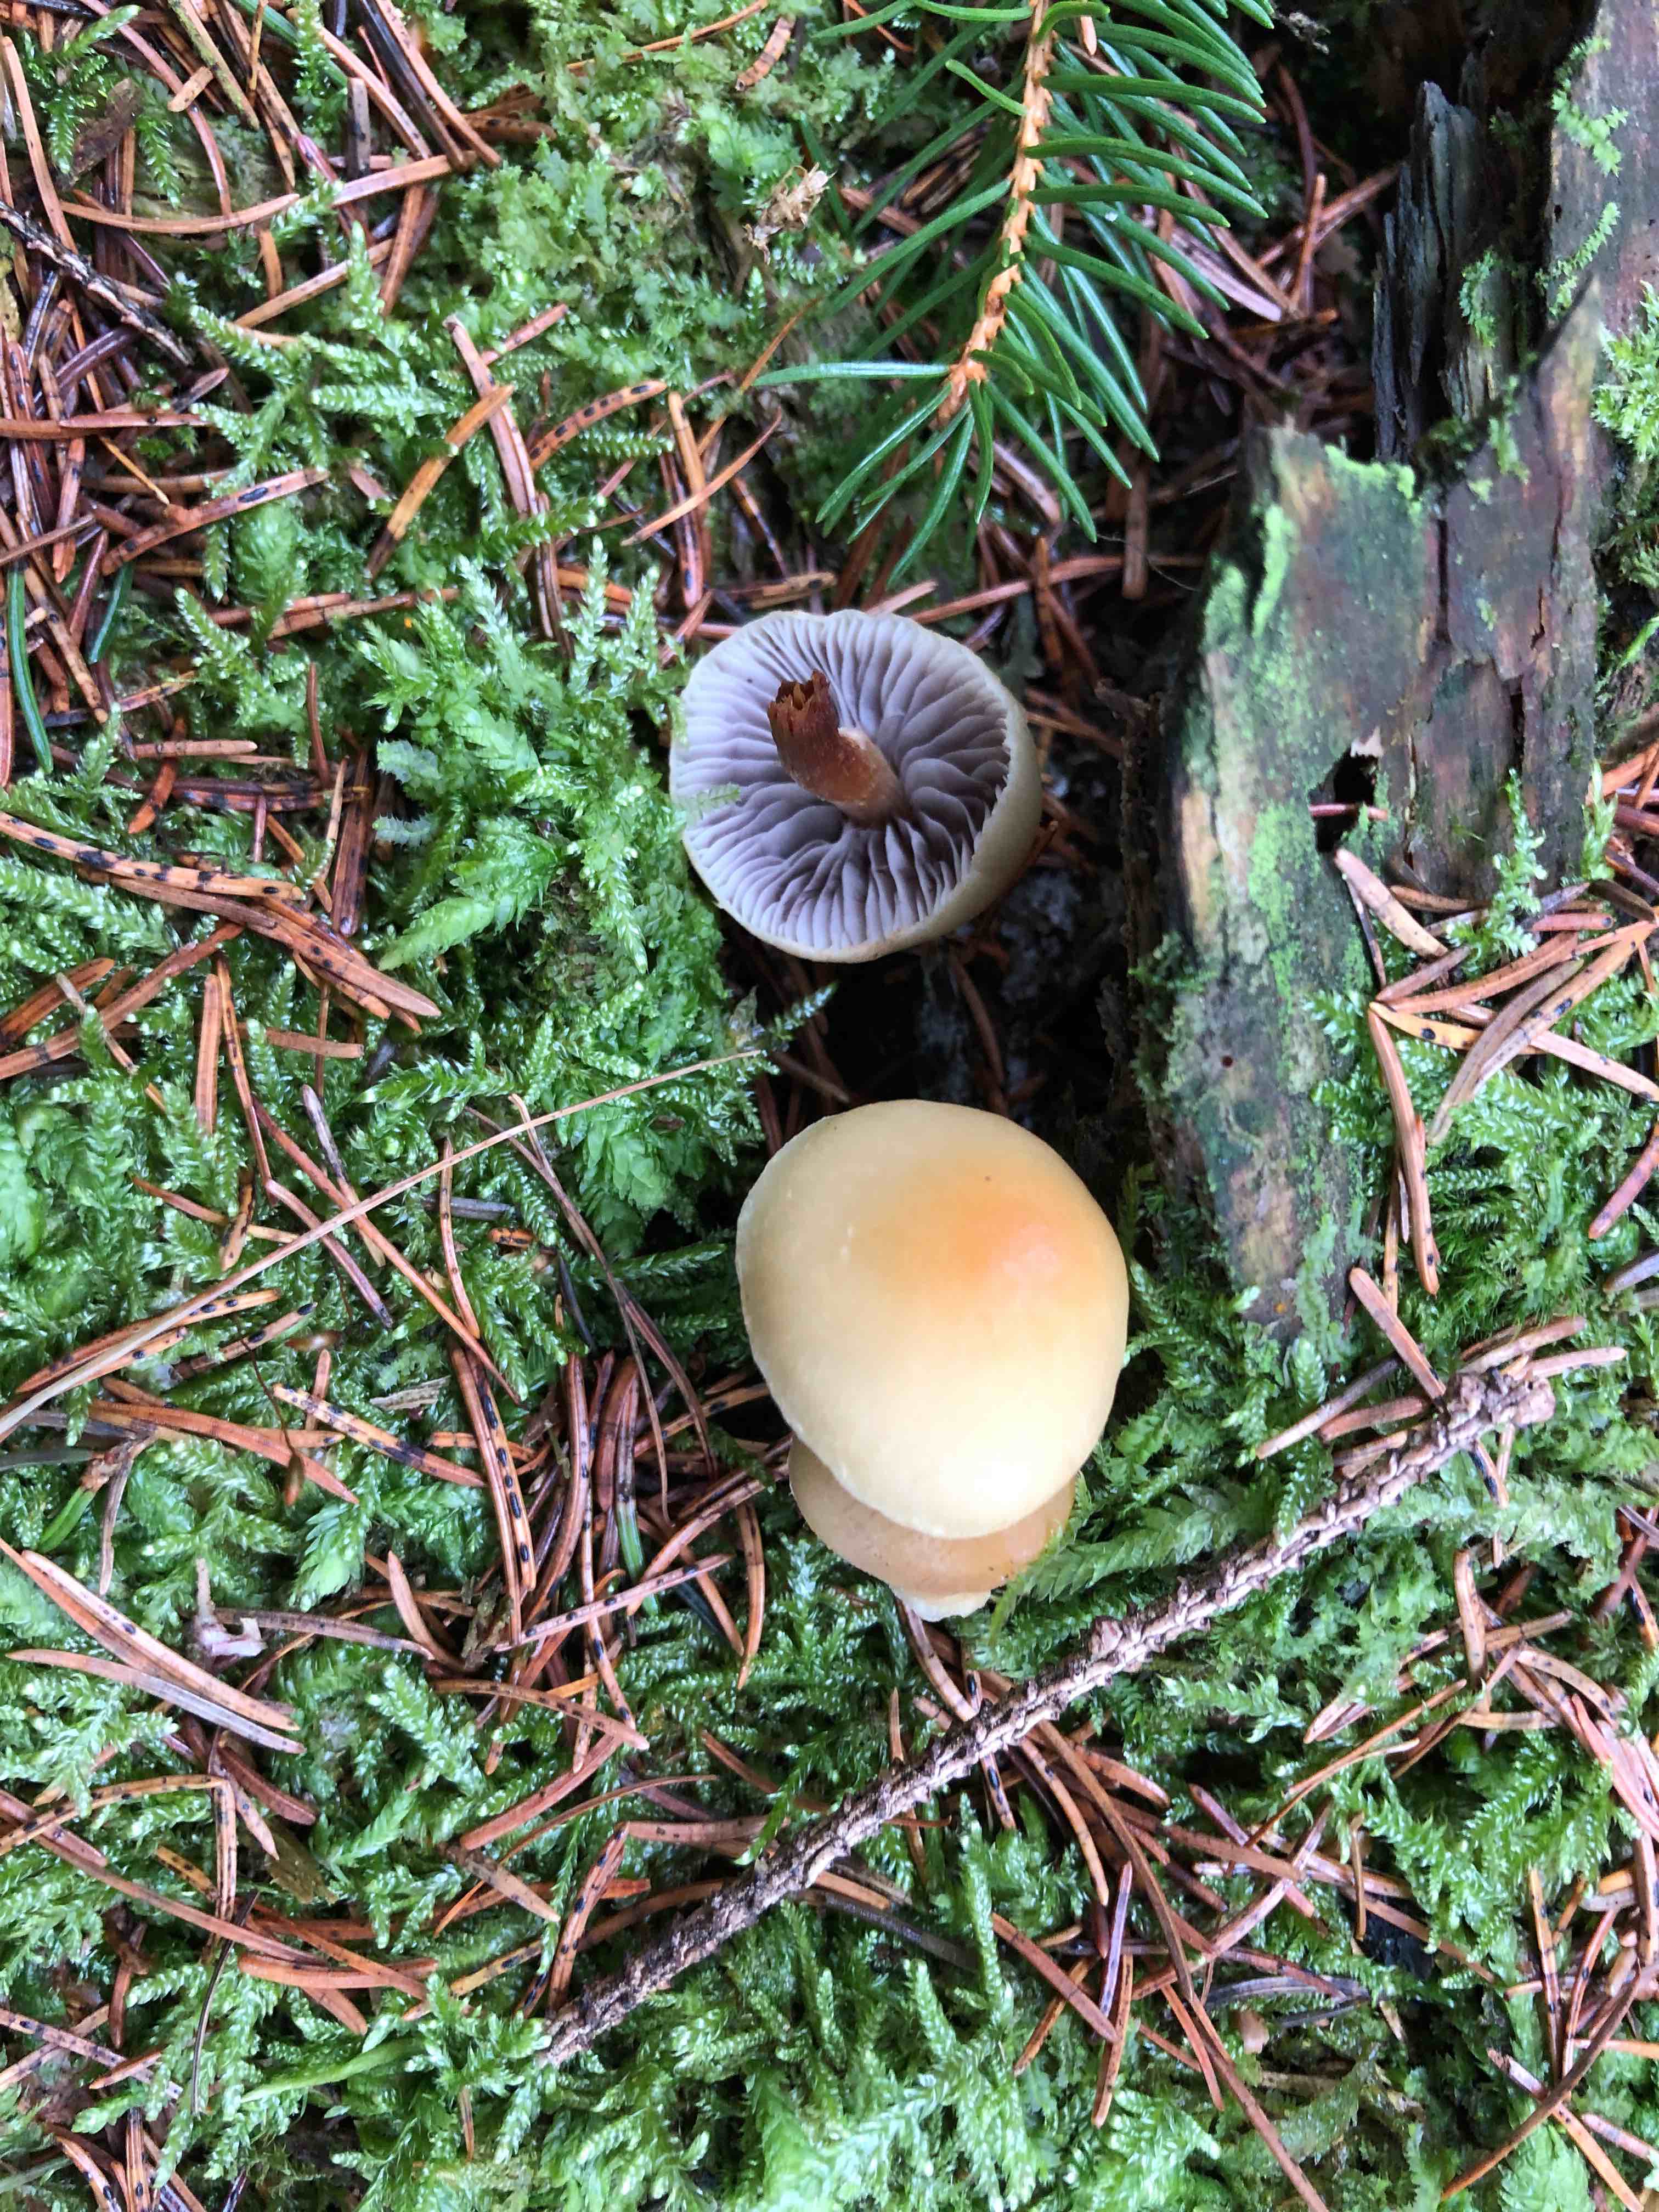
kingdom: Fungi
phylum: Basidiomycota
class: Agaricomycetes
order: Agaricales
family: Strophariaceae
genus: Hypholoma
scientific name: Hypholoma capnoides
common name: gran-svovlhat
